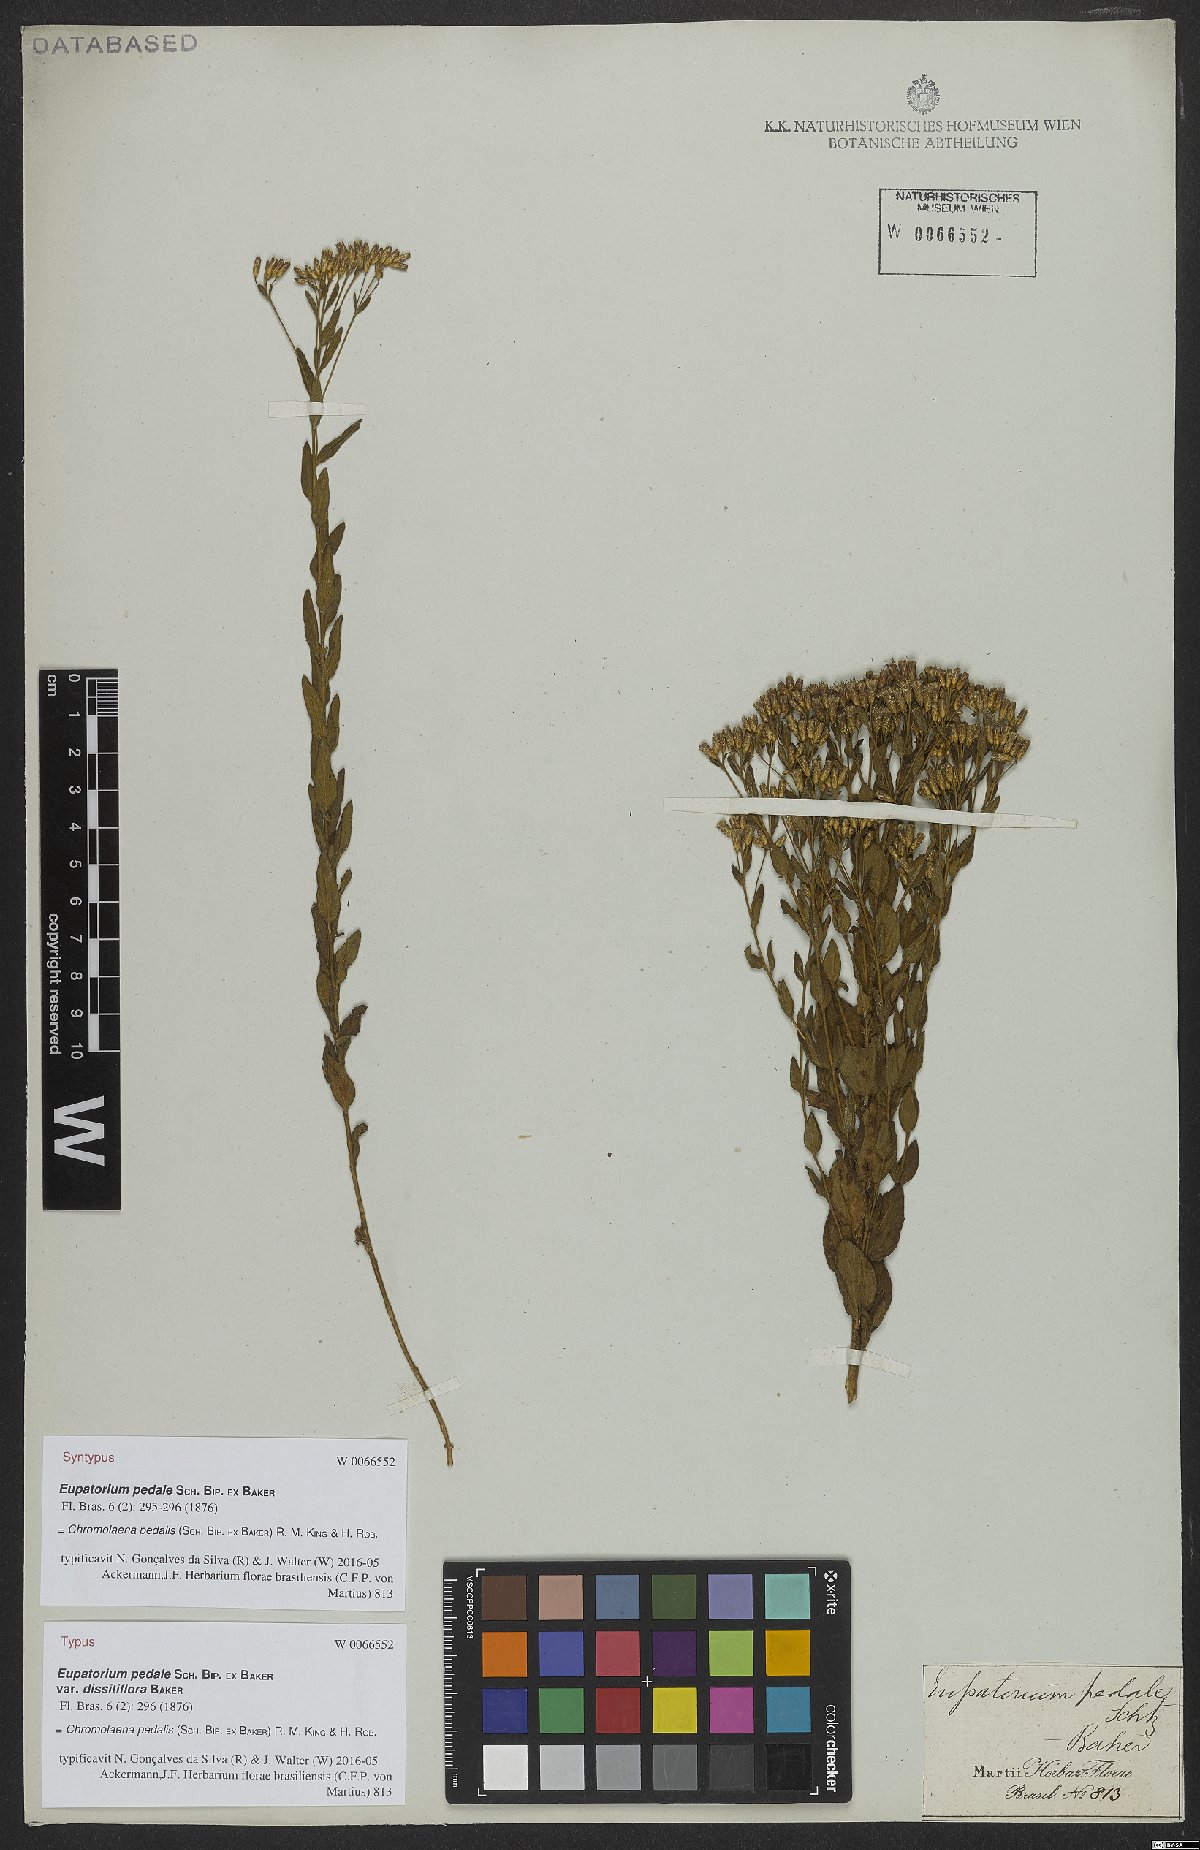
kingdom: Plantae
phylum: Tracheophyta
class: Magnoliopsida
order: Asterales
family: Asteraceae
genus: Chromolaena
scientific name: Chromolaena pedalis
